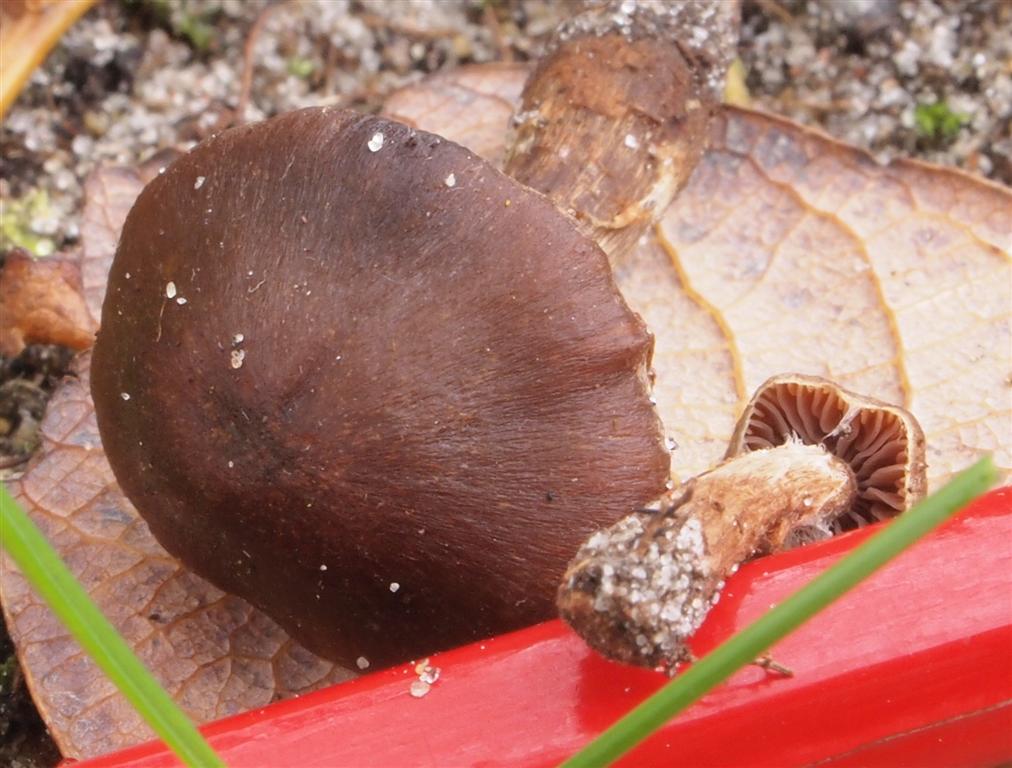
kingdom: Fungi
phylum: Basidiomycota
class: Agaricomycetes
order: Agaricales
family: Cortinariaceae
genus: Cortinarius
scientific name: Cortinarius impolitus
